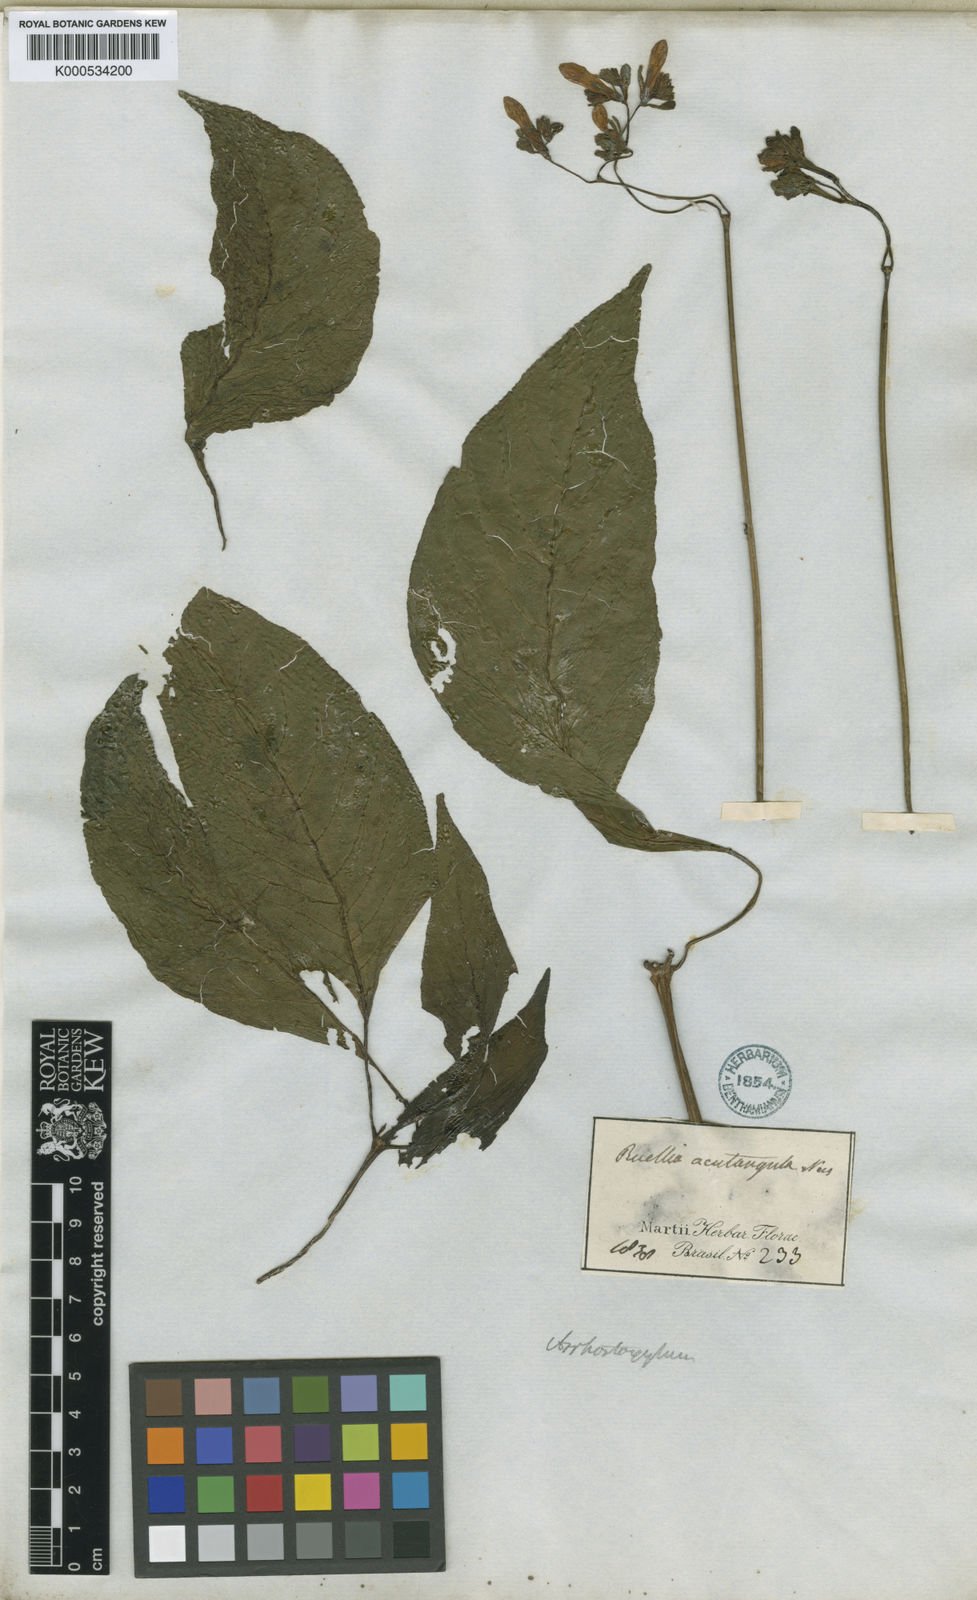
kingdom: Plantae
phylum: Tracheophyta
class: Magnoliopsida
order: Lamiales
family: Acanthaceae
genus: Ruellia
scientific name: Ruellia acutangula
